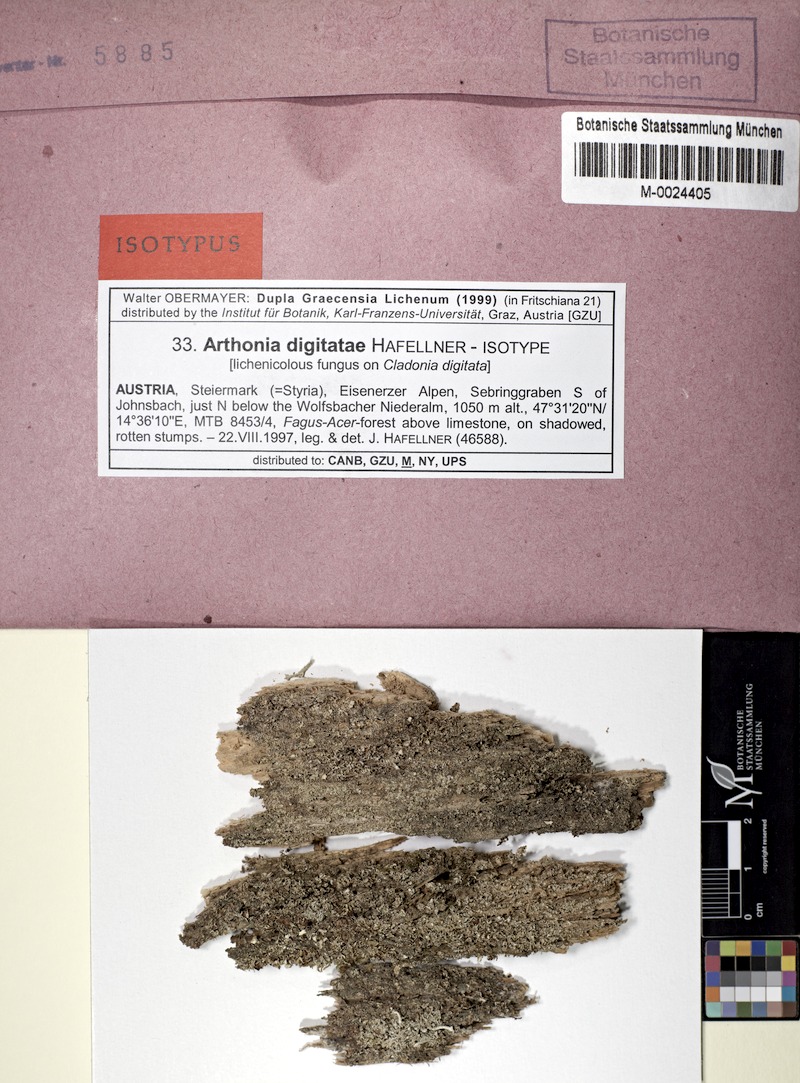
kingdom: Fungi
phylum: Ascomycota
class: Arthoniomycetes
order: Arthoniales
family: Arthoniaceae
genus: Arthonia
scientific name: Arthonia digitatae
